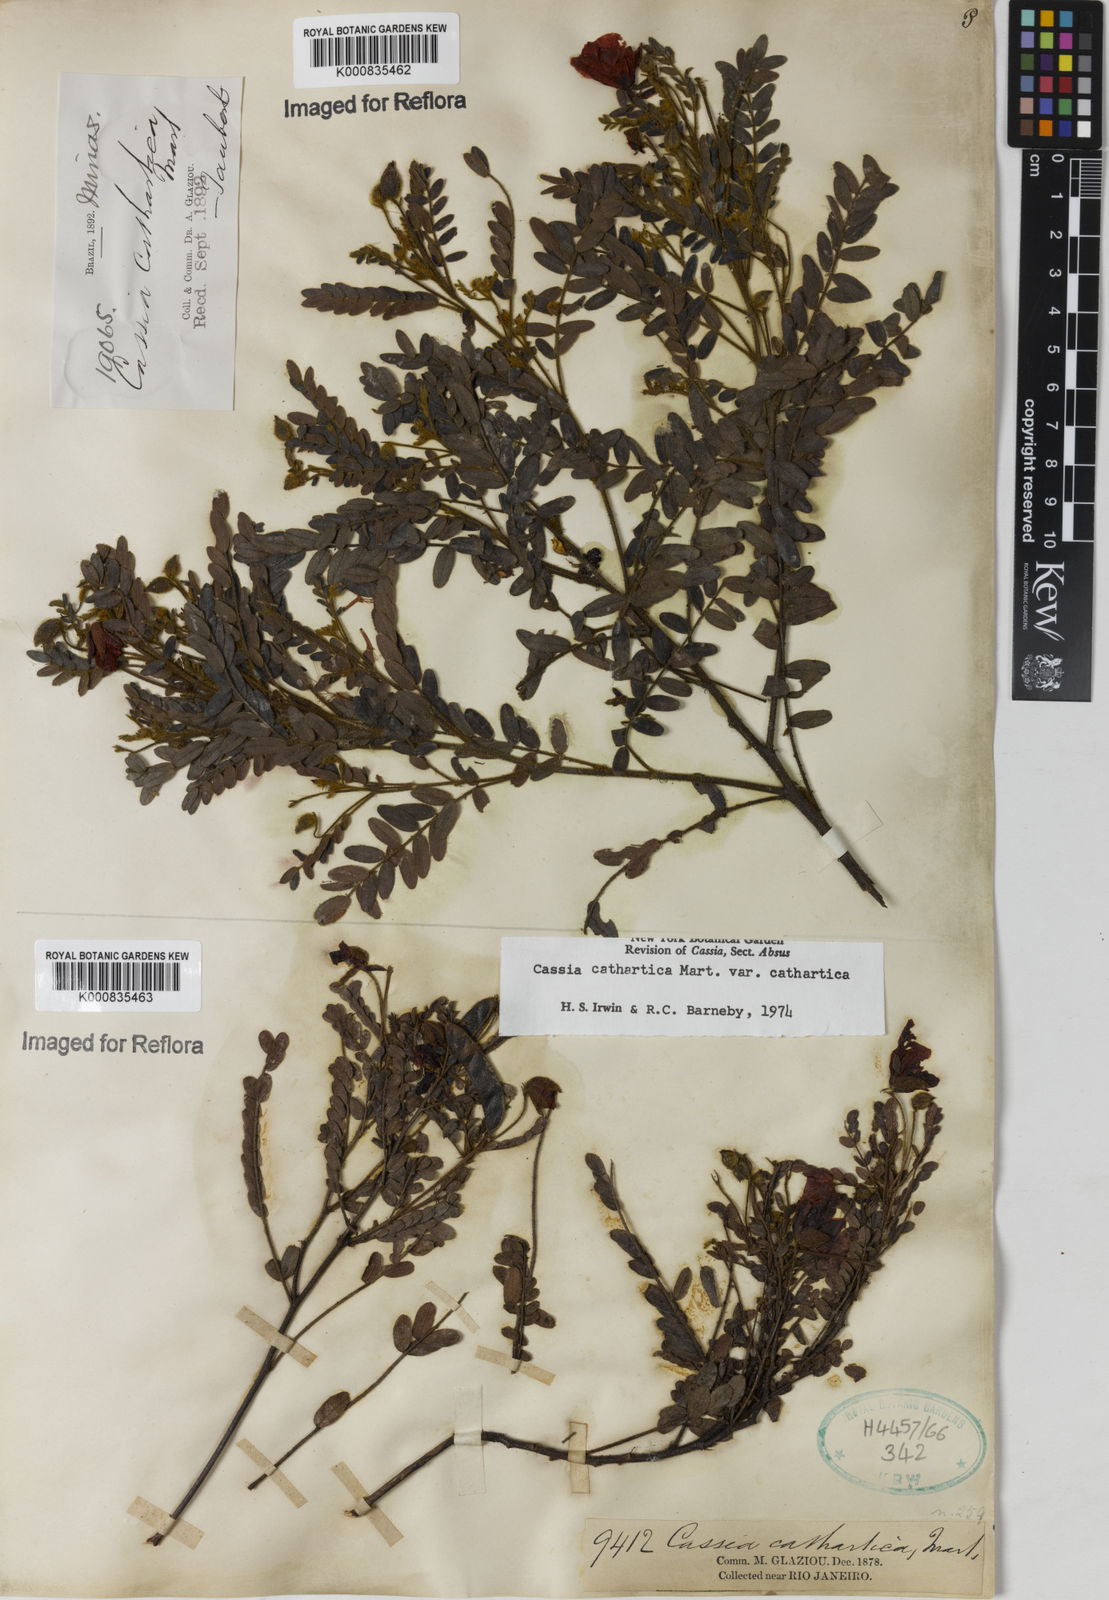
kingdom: Plantae
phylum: Tracheophyta
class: Magnoliopsida
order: Fabales
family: Fabaceae
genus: Chamaecrista
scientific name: Chamaecrista cathartica
